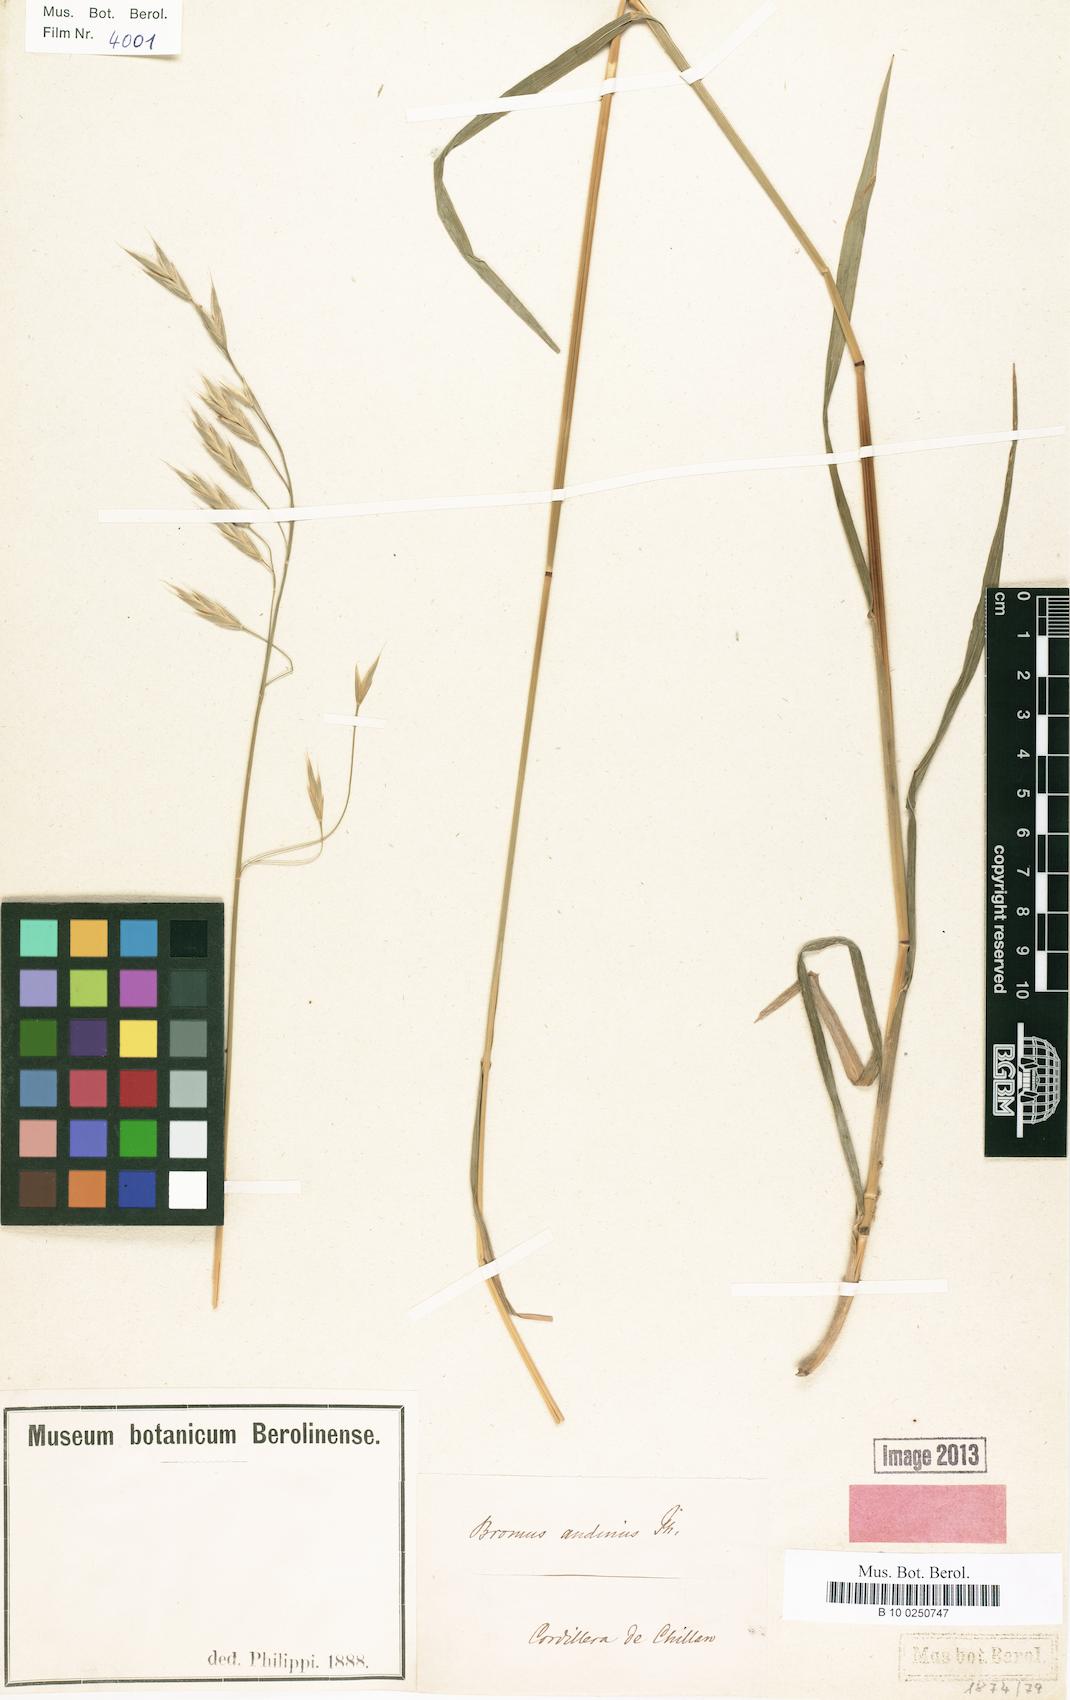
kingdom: Plantae
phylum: Tracheophyta
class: Liliopsida
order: Poales
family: Poaceae
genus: Bromus
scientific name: Bromus lithobius
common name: Chilean brome
